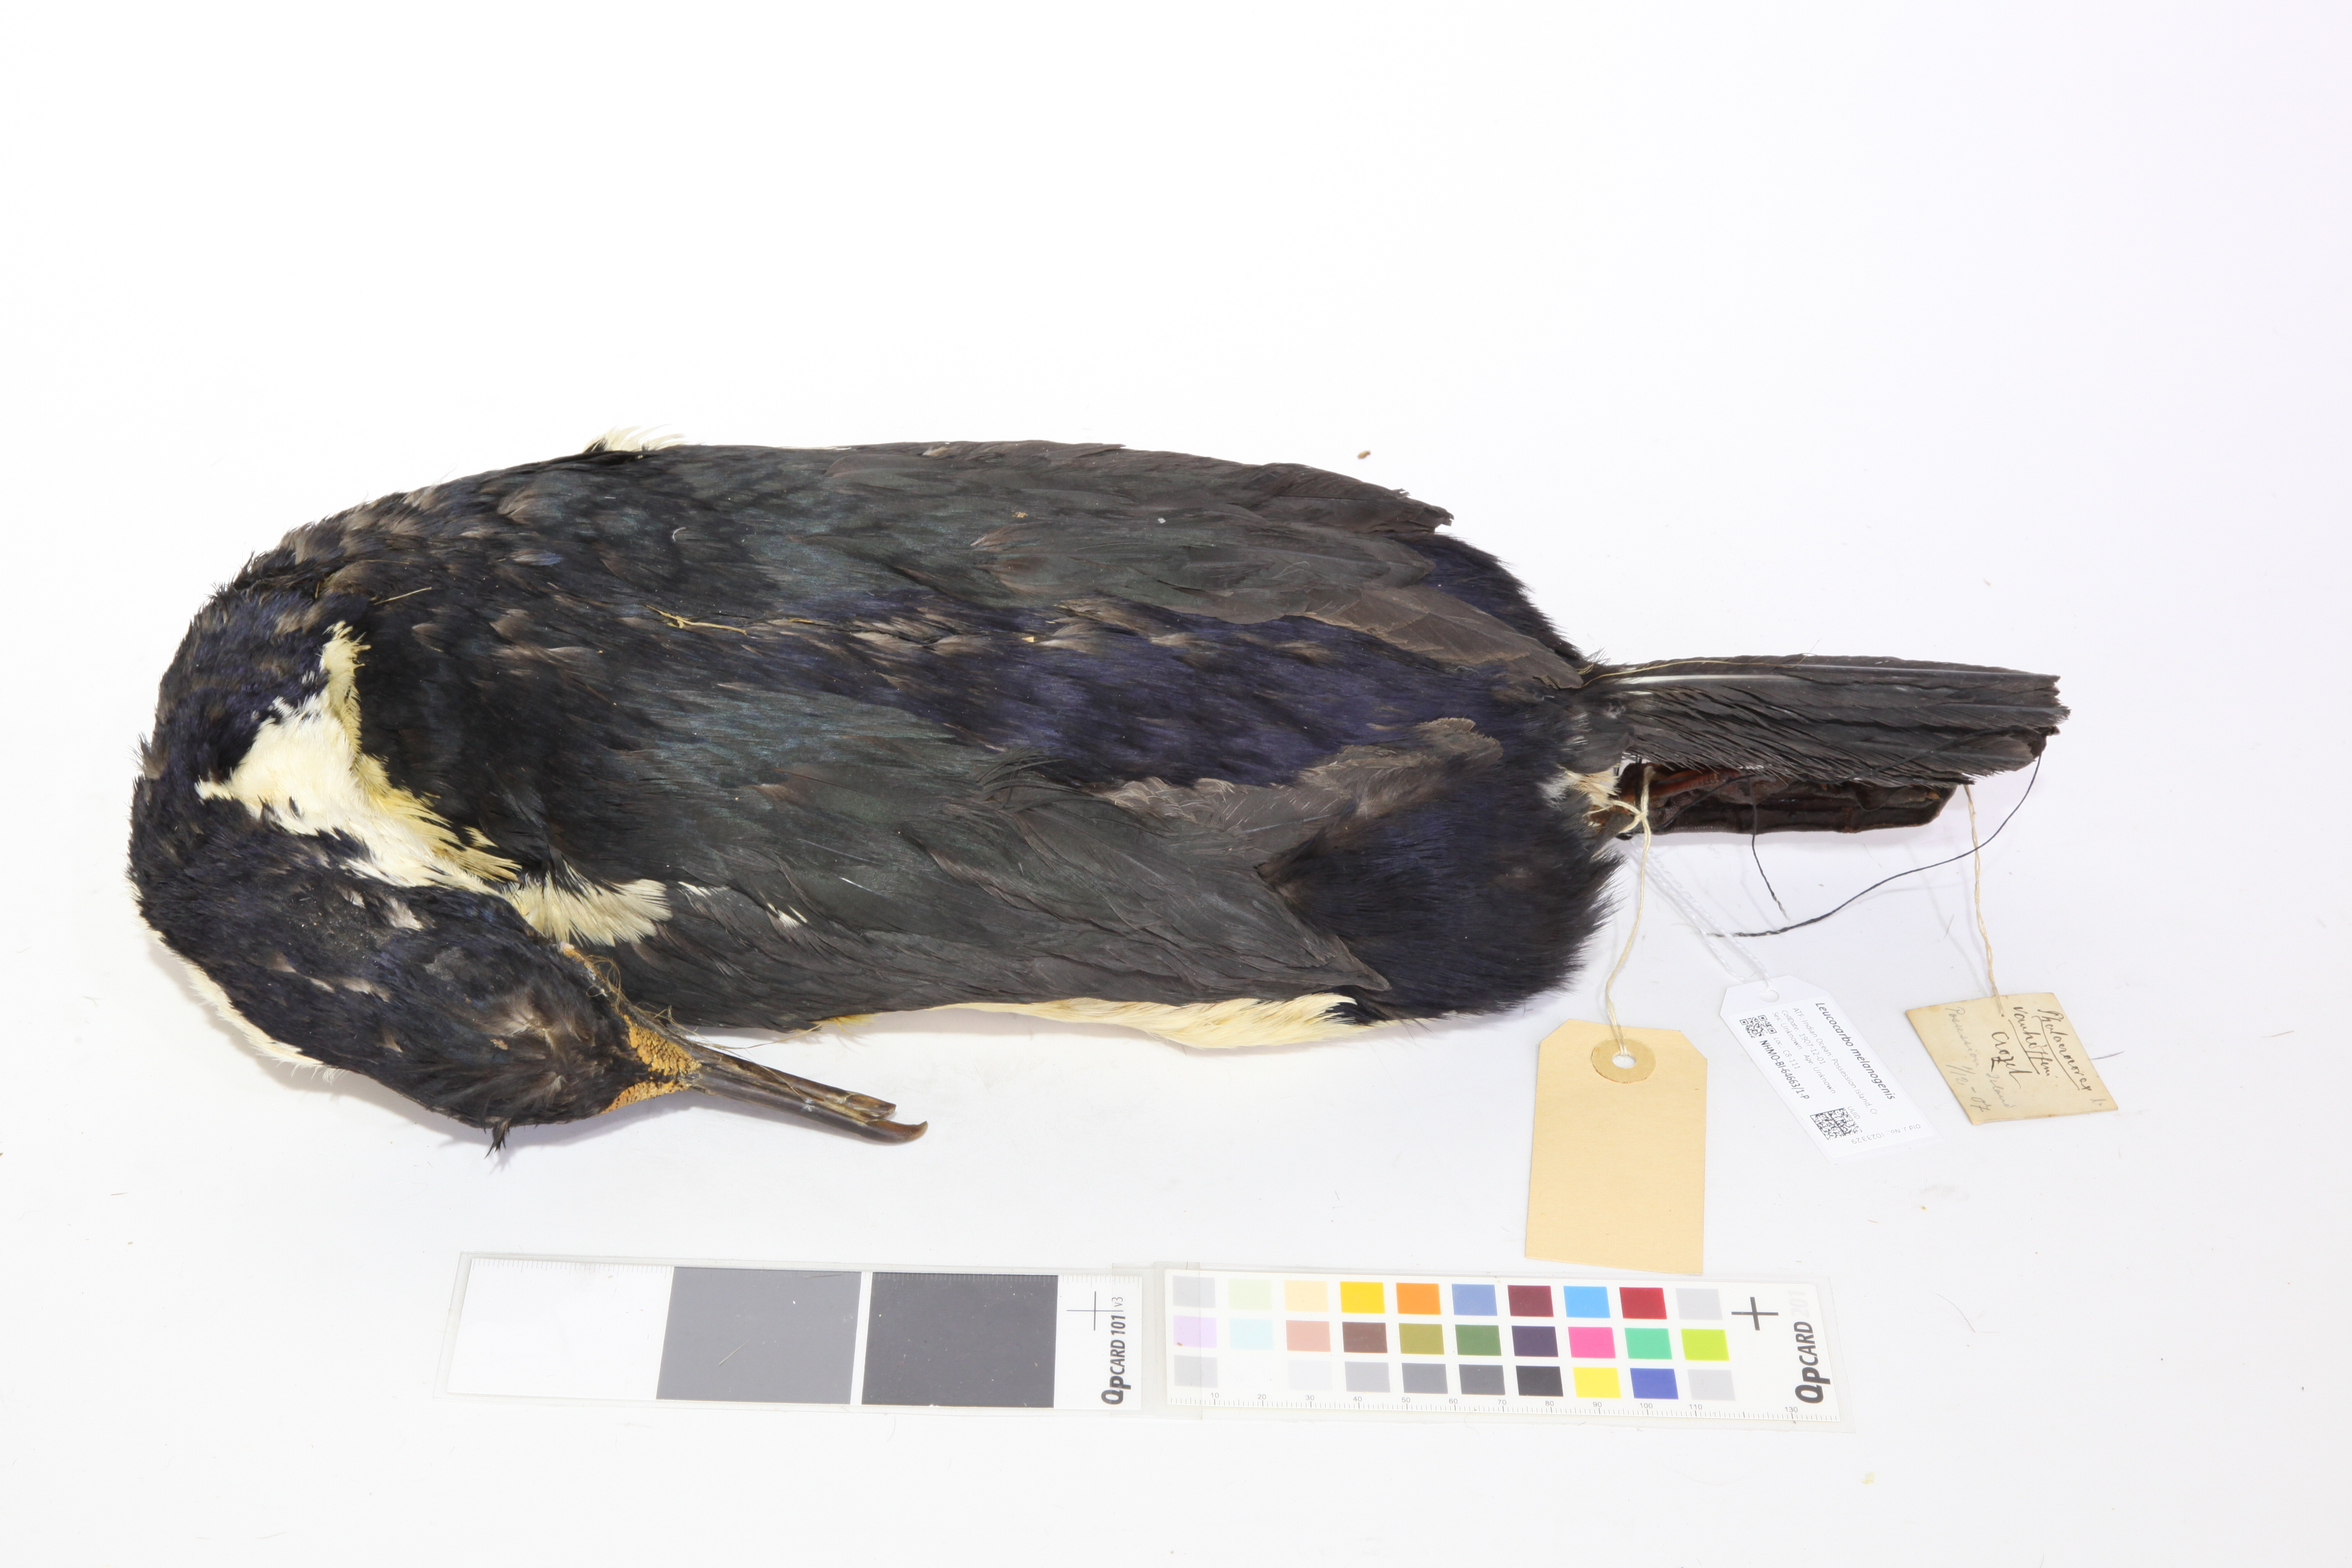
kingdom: Animalia
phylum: Chordata
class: Aves
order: Suliformes
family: Phalacrocoracidae
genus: Leucocarbo
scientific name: Leucocarbo albiventer
